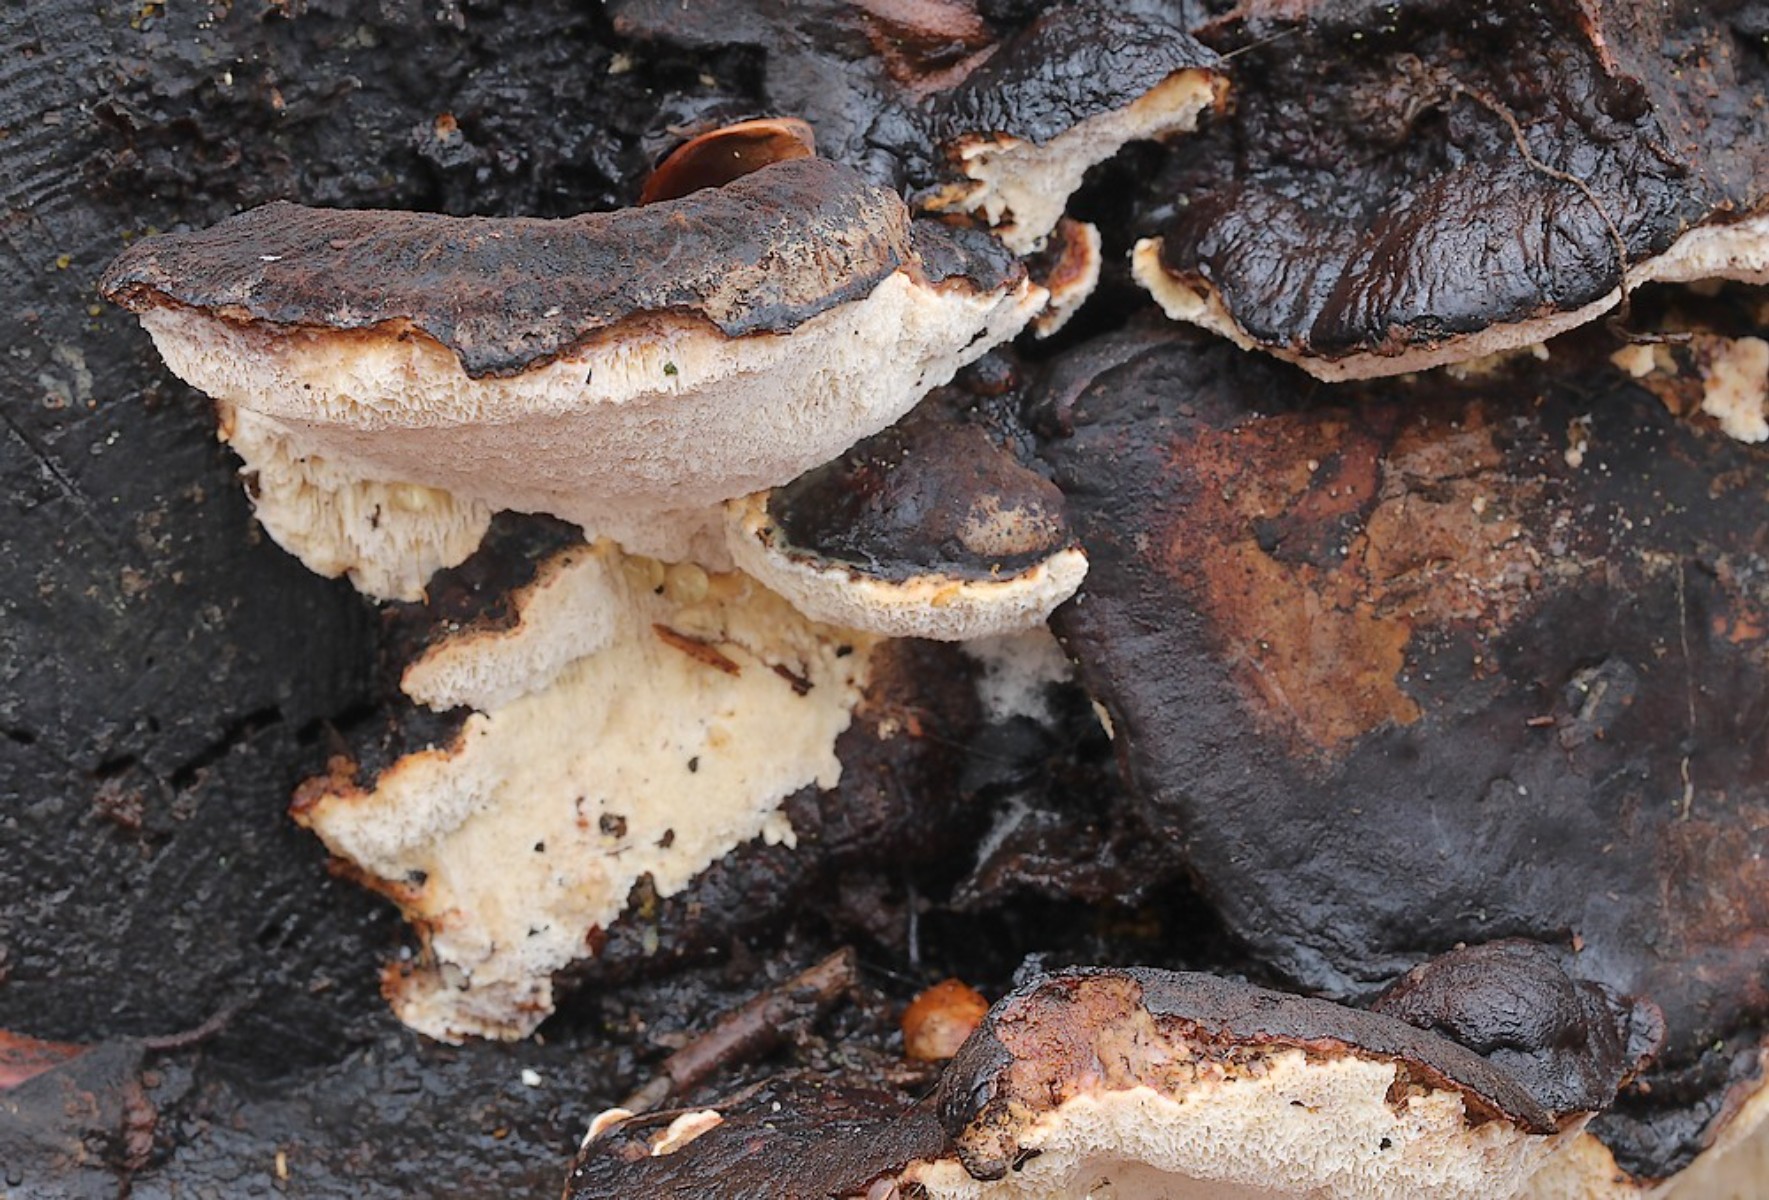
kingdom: Fungi
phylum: Basidiomycota
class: Agaricomycetes
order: Polyporales
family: Ischnodermataceae
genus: Ischnoderma
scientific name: Ischnoderma resinosum
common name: løv-tjæreporesvamp
